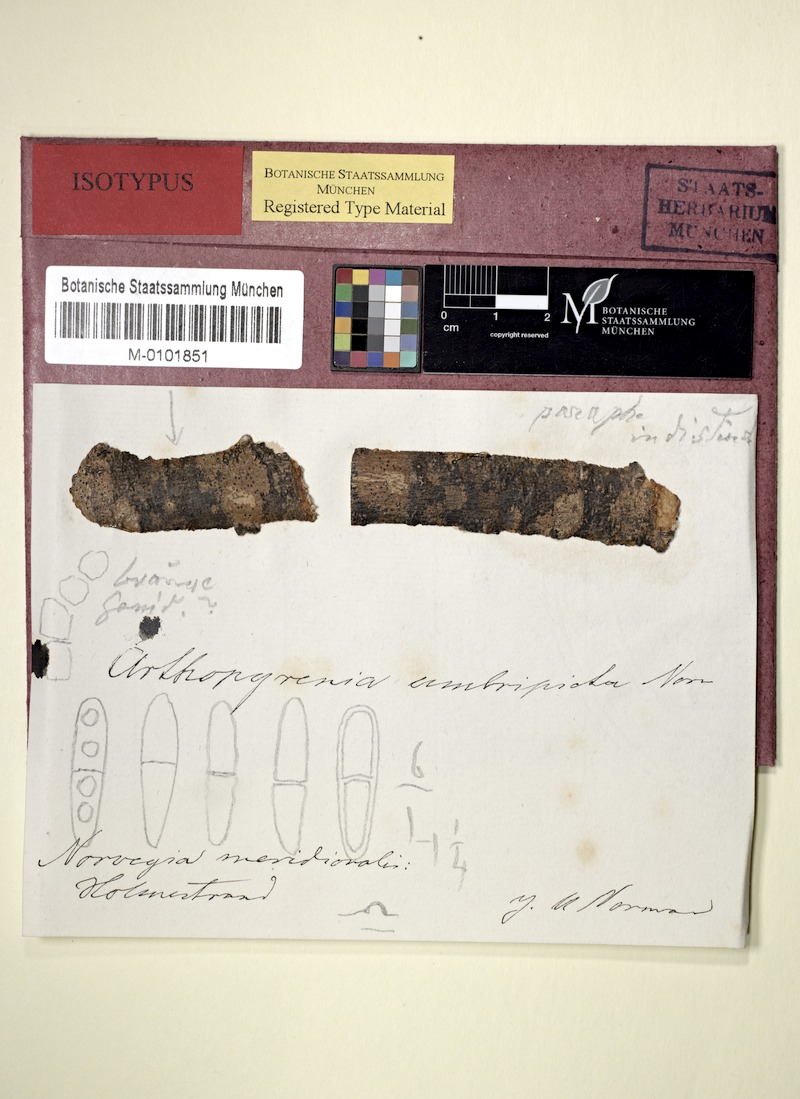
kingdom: Fungi
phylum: Ascomycota
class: Dothideomycetes
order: Pleosporales
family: Arthopyreniaceae
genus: Arthopyrenia
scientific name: Arthopyrenia umbripicta
